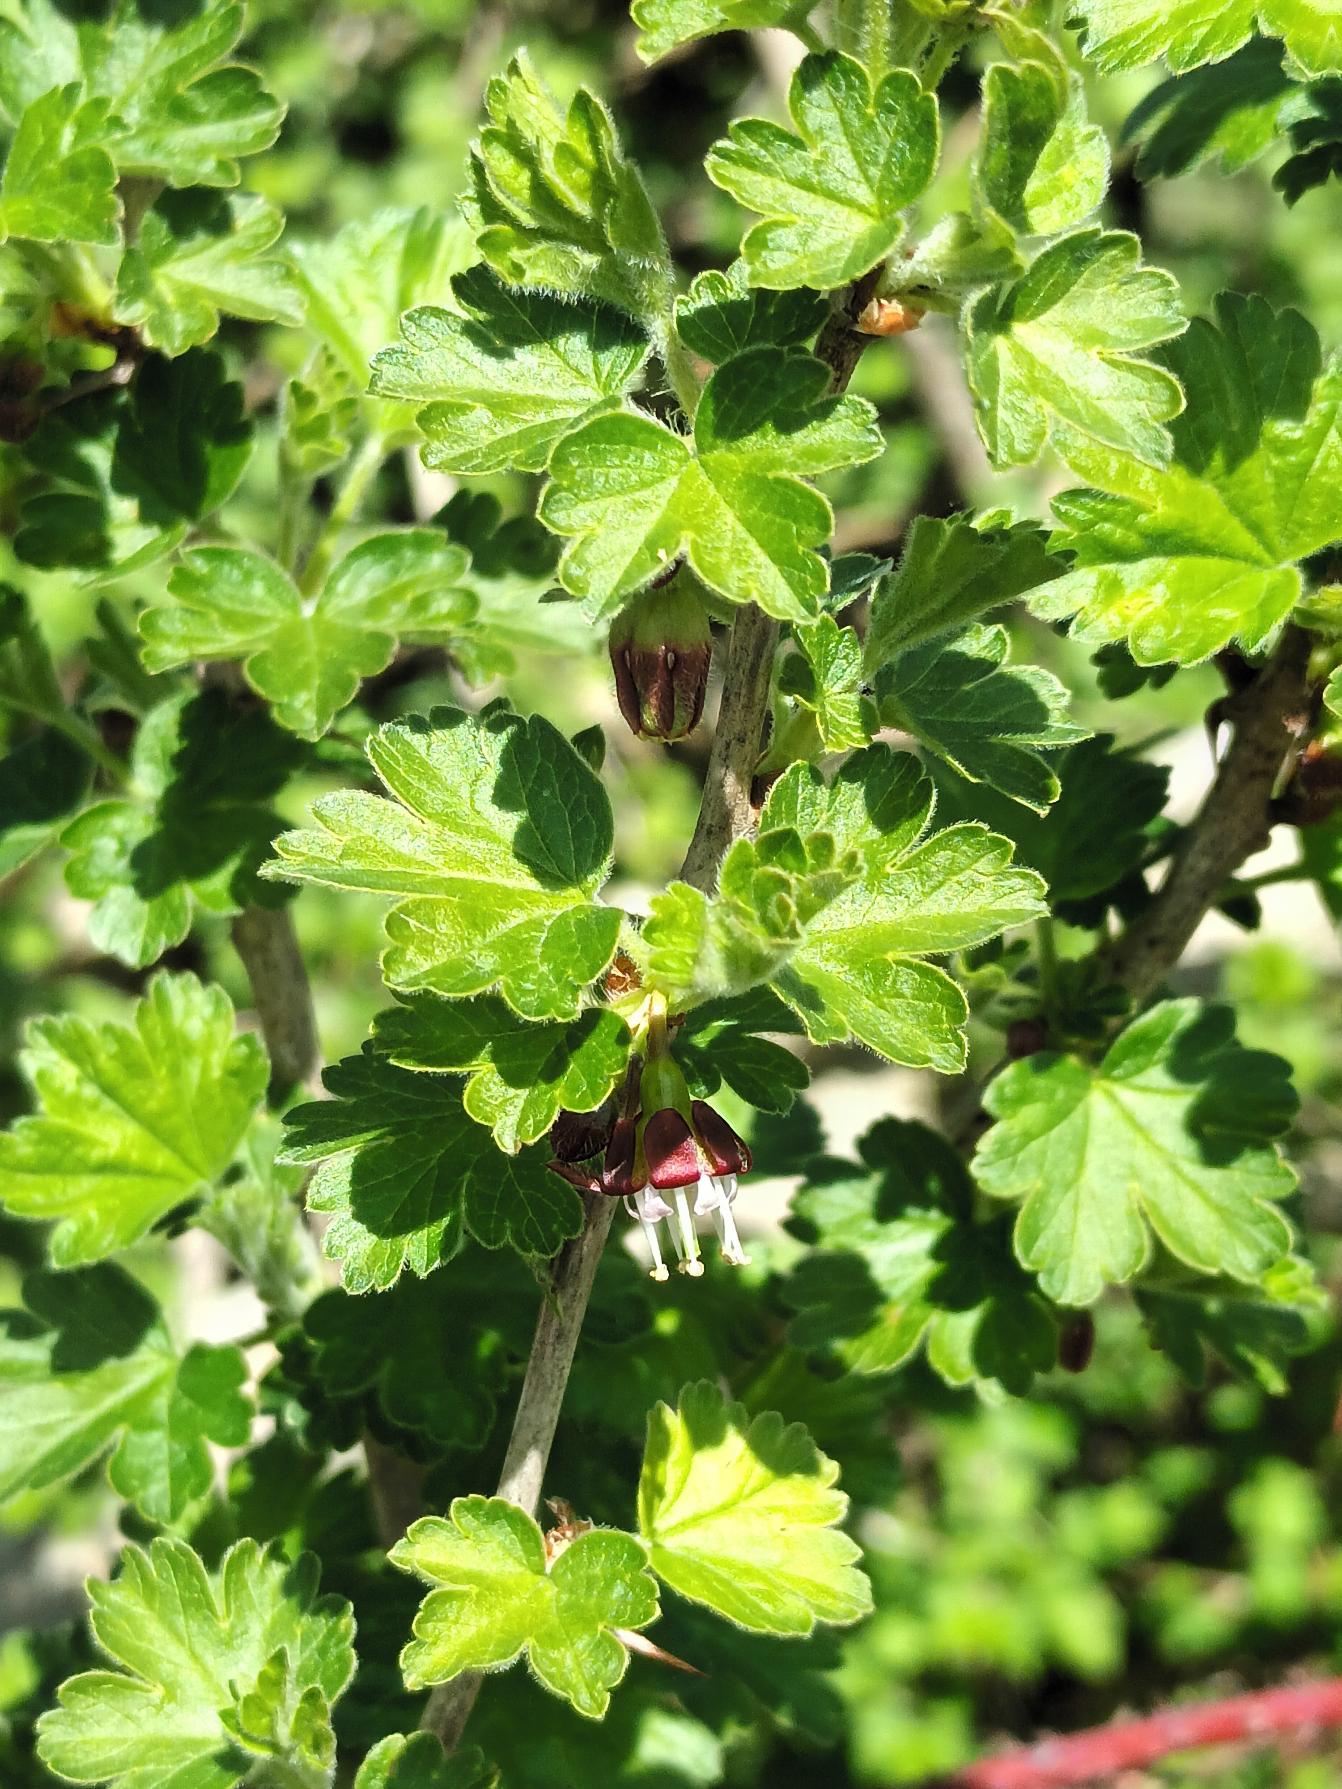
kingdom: Plantae
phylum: Tracheophyta
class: Magnoliopsida
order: Saxifragales
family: Grossulariaceae
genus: Ribes
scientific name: Ribes uva-crispa
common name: Stikkelsbær
